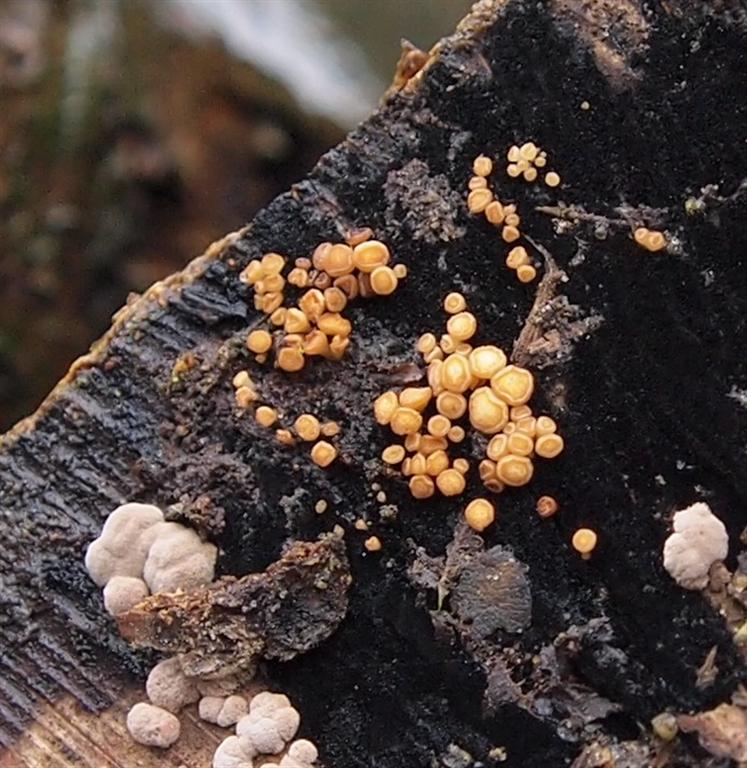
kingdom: Fungi
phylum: Ascomycota
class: Leotiomycetes
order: Helotiales
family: Helotiaceae
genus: Bispora
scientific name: Bispora pallescens
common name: måtte-snitskive
